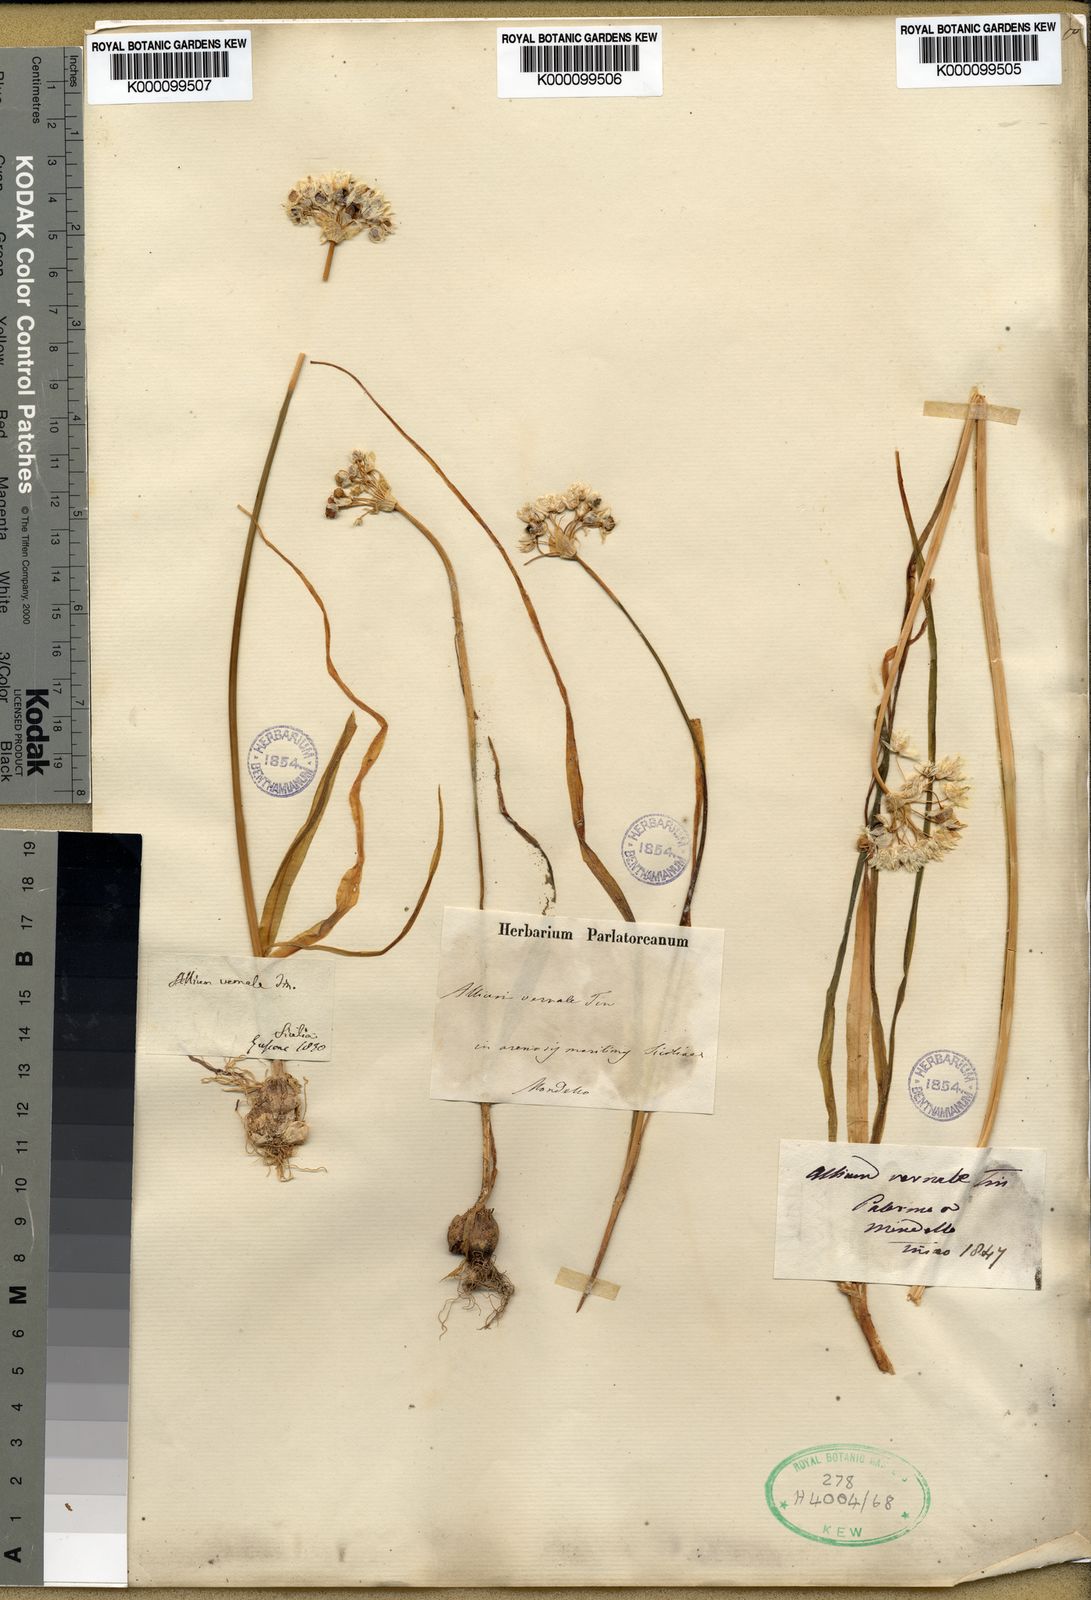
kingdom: Plantae
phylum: Tracheophyta
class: Liliopsida
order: Asparagales
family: Amaryllidaceae
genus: Allium
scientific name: Allium subvillosum
